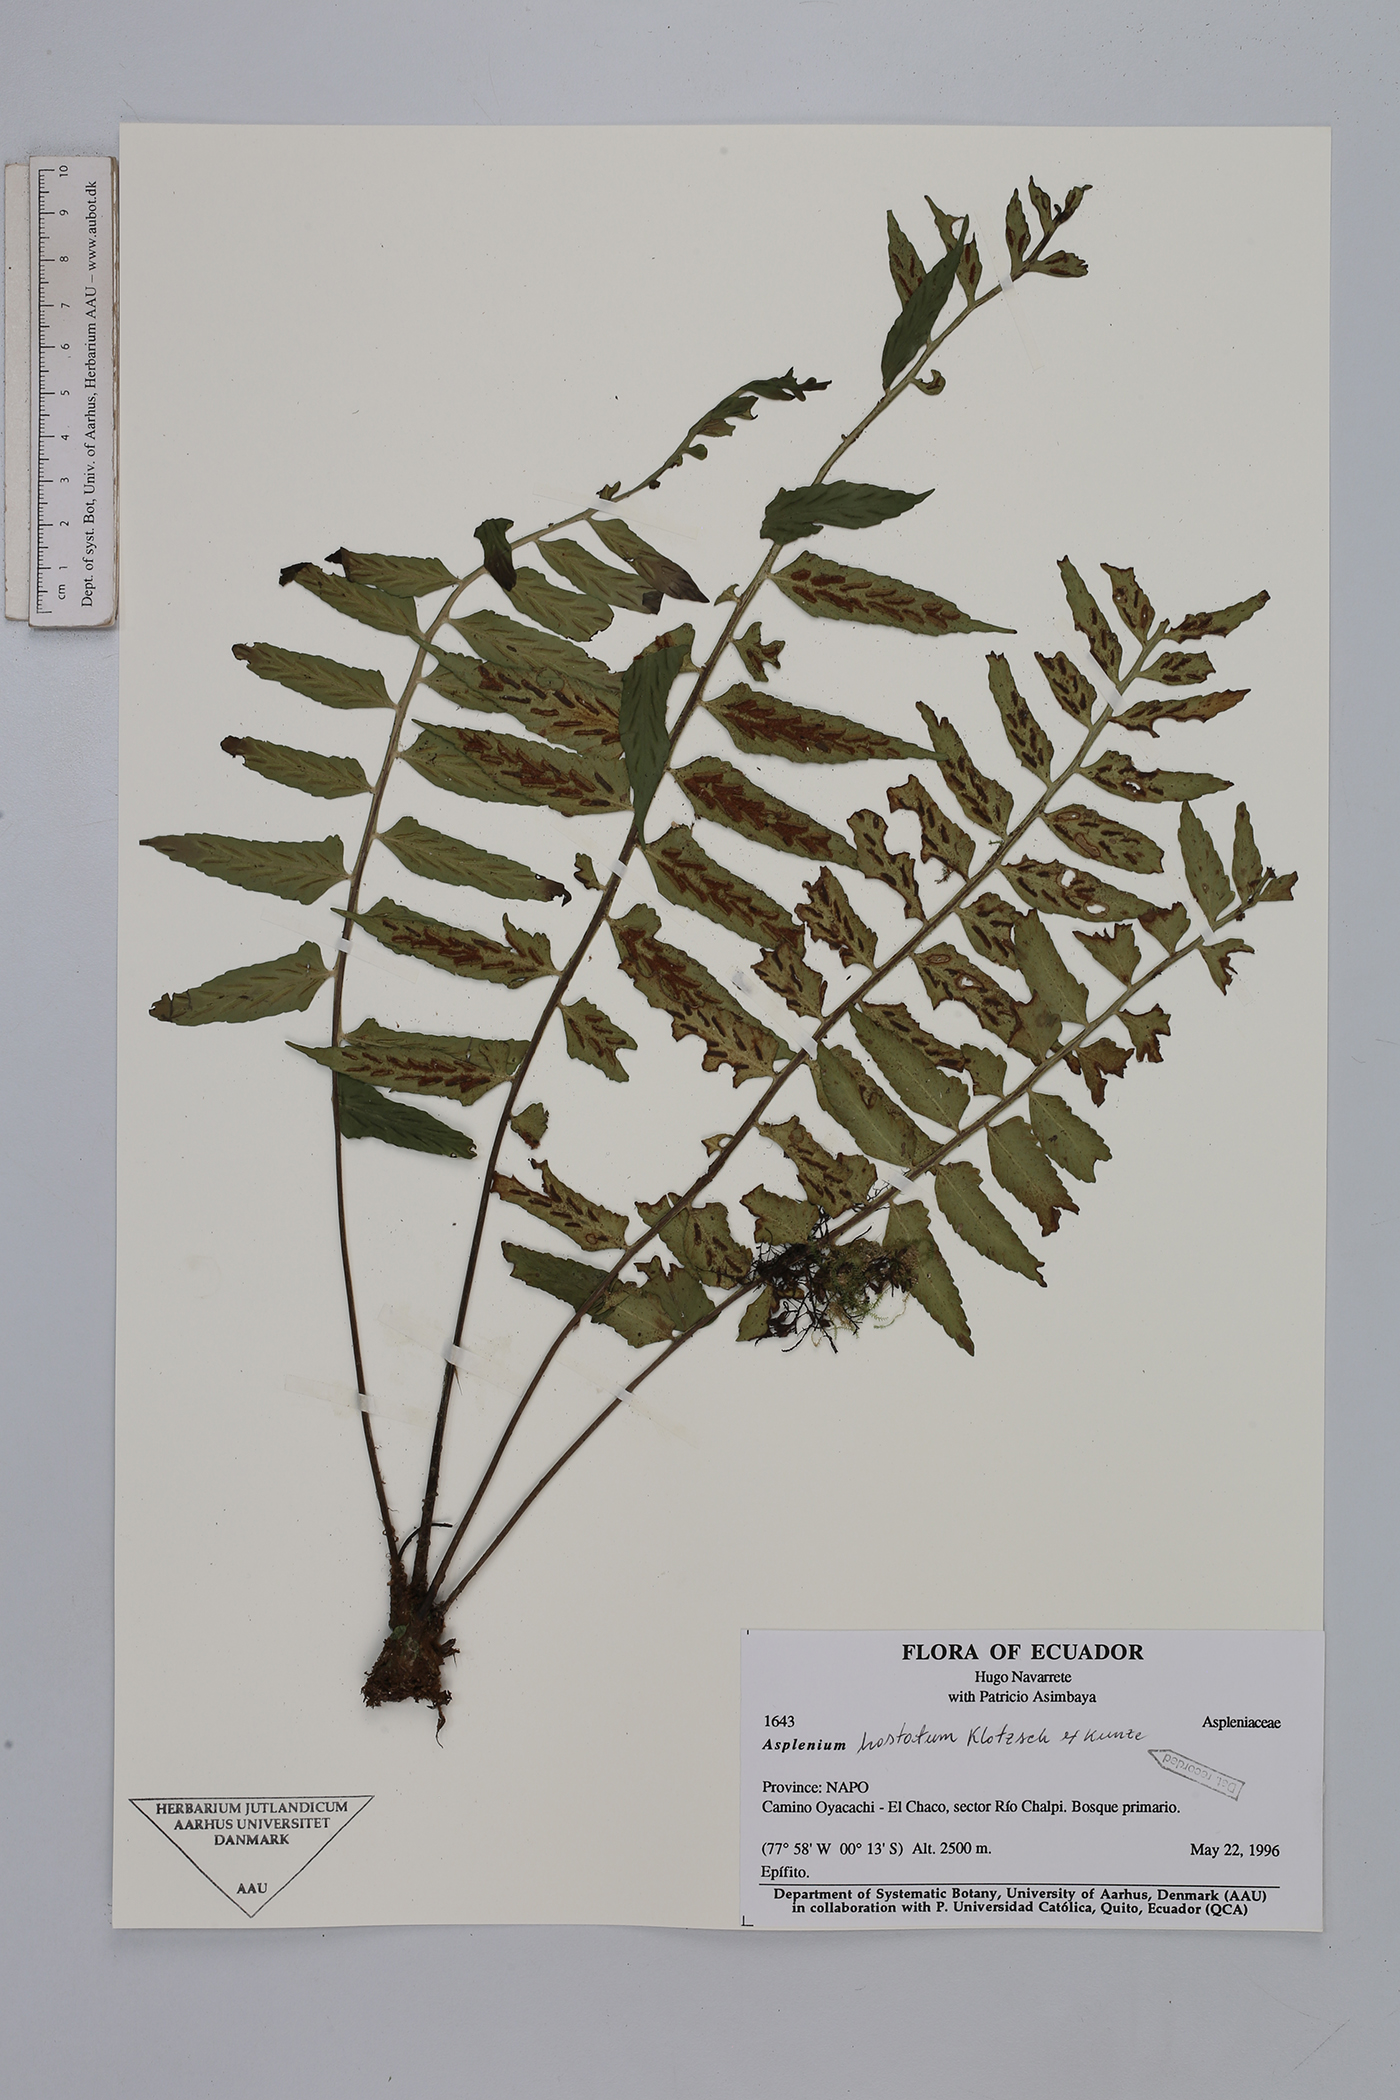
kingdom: Plantae
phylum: Tracheophyta
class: Polypodiopsida
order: Polypodiales
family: Dennstaedtiaceae
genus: Dennstaedtia
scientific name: Dennstaedtia auriculata
